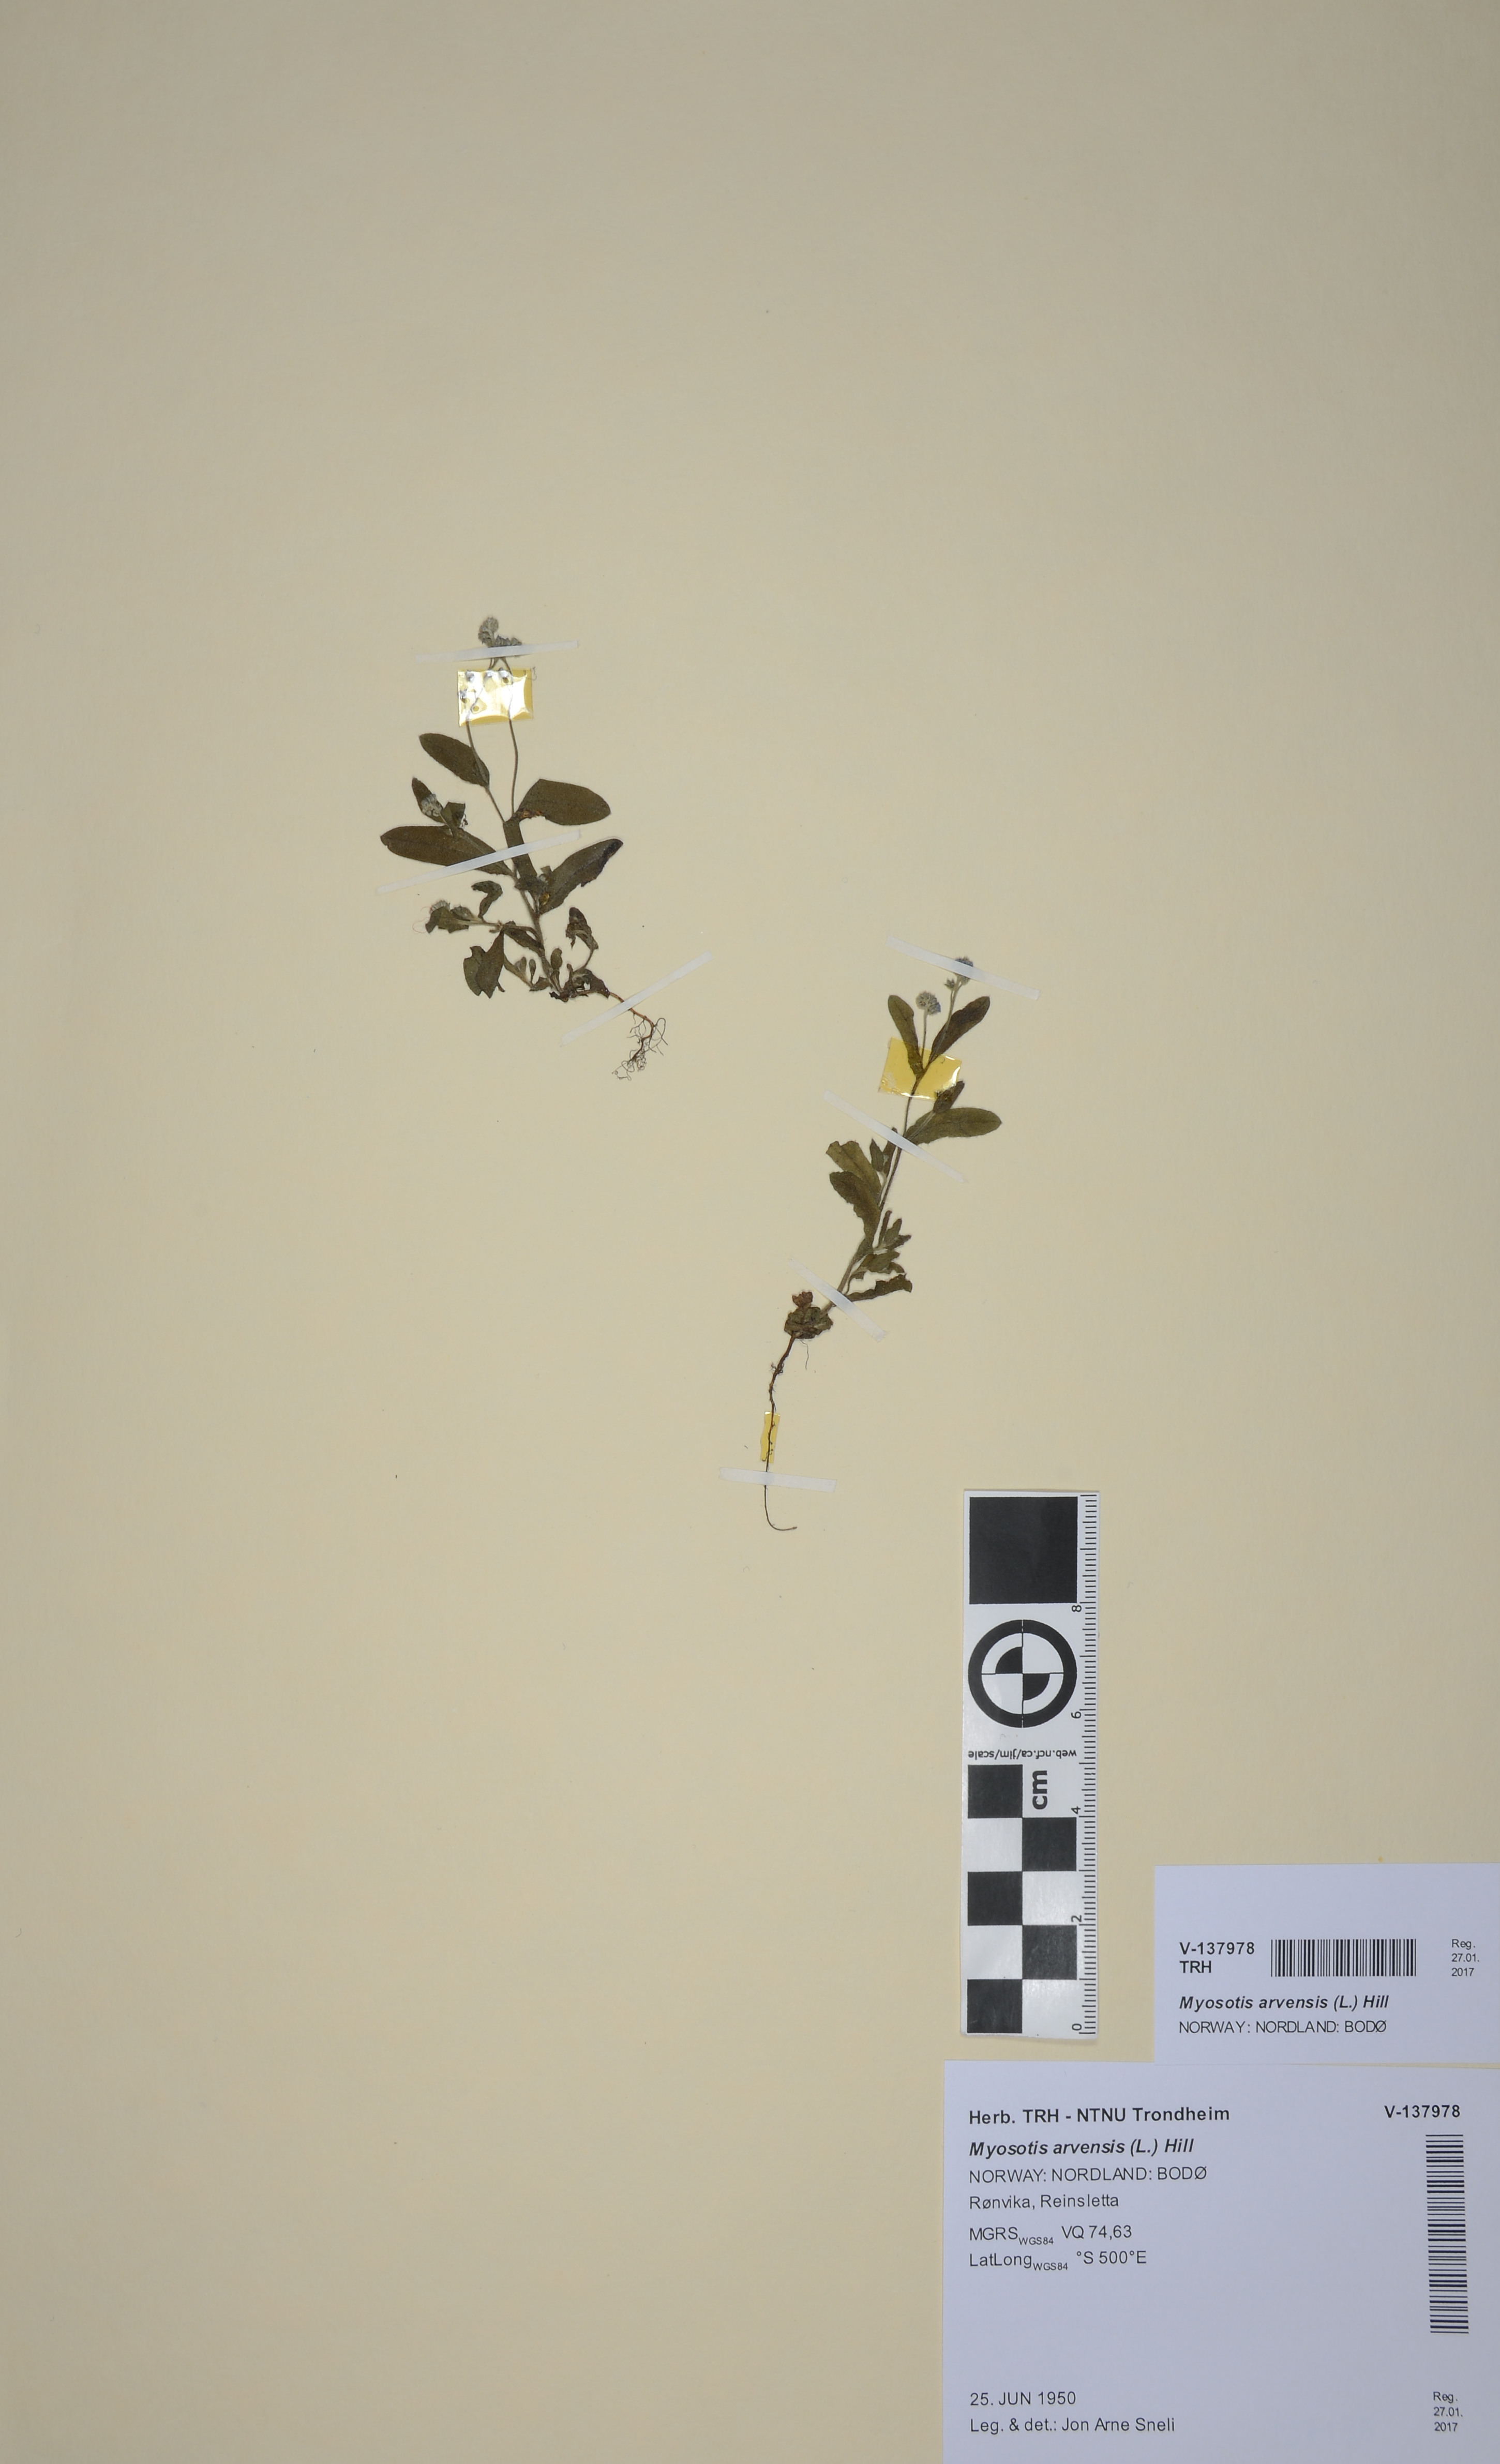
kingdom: Plantae
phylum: Tracheophyta
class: Magnoliopsida
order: Boraginales
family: Boraginaceae
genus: Myosotis
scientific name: Myosotis arvensis
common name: Field forget-me-not
